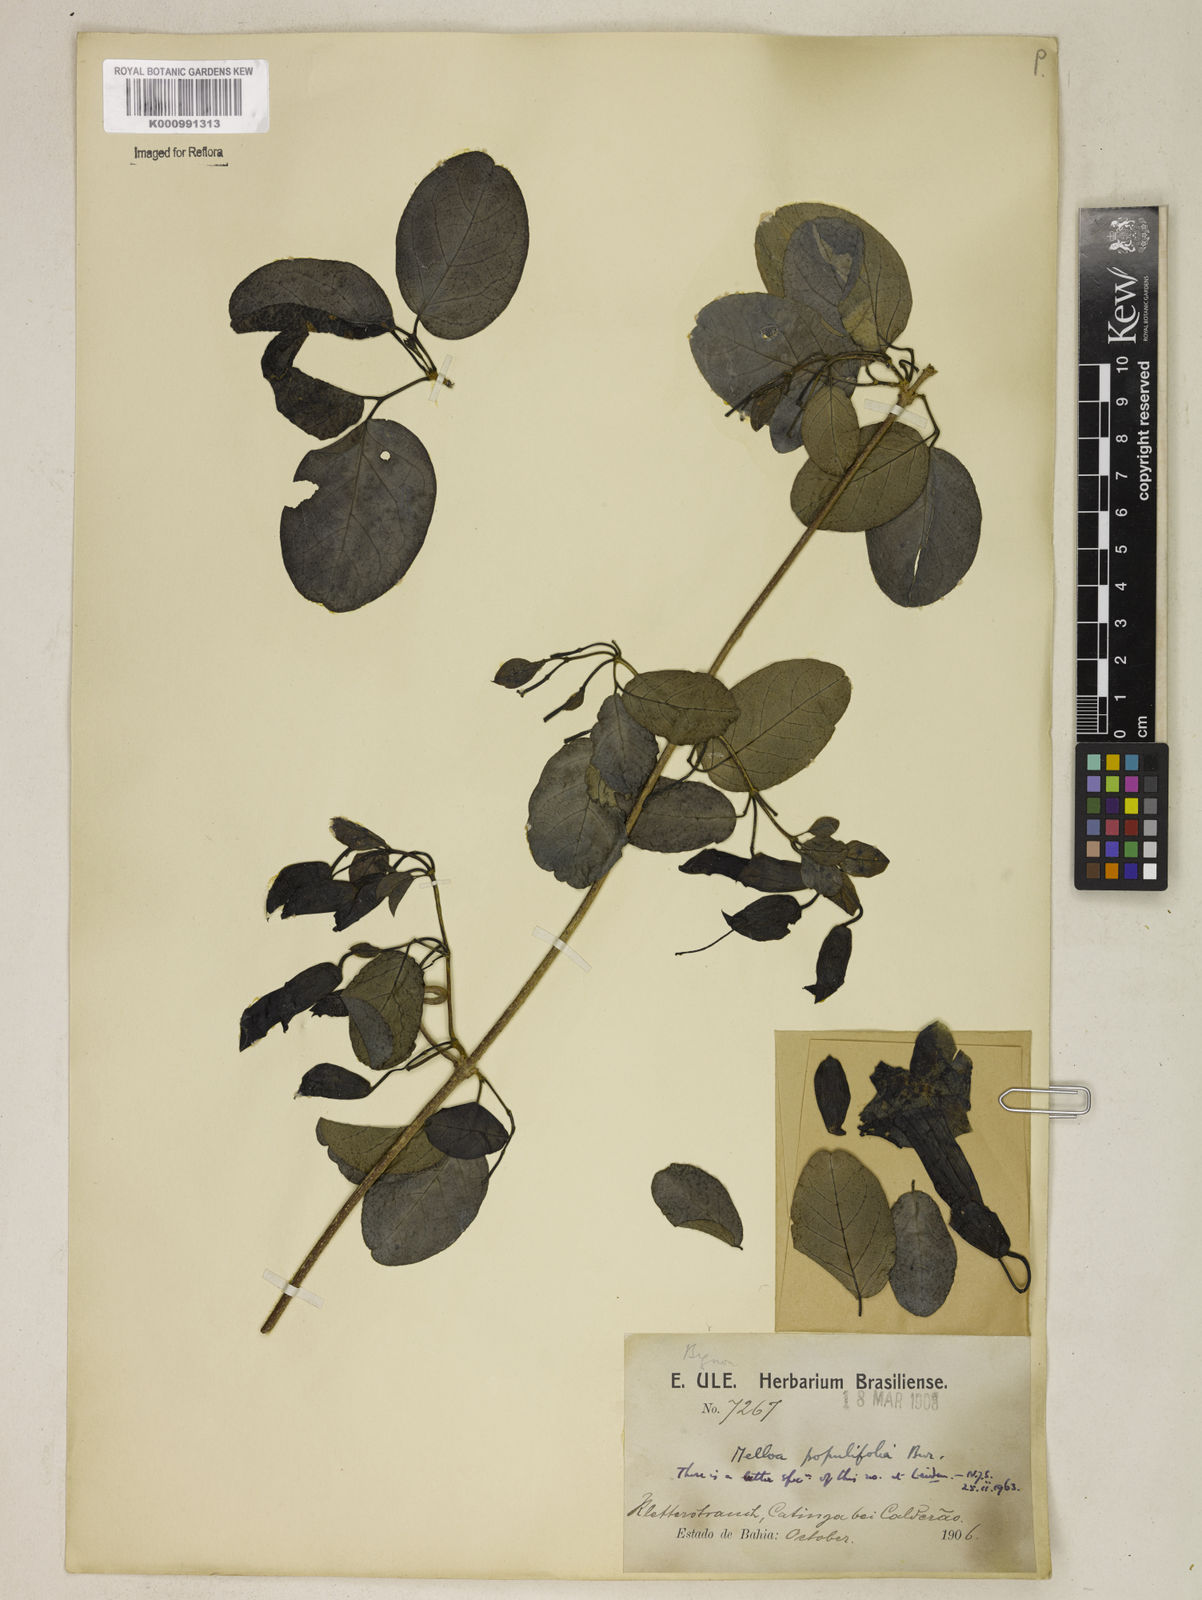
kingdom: Plantae
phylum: Tracheophyta
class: Magnoliopsida
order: Lamiales
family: Bignoniaceae
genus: Dolichandra
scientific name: Dolichandra quadrivalvis
